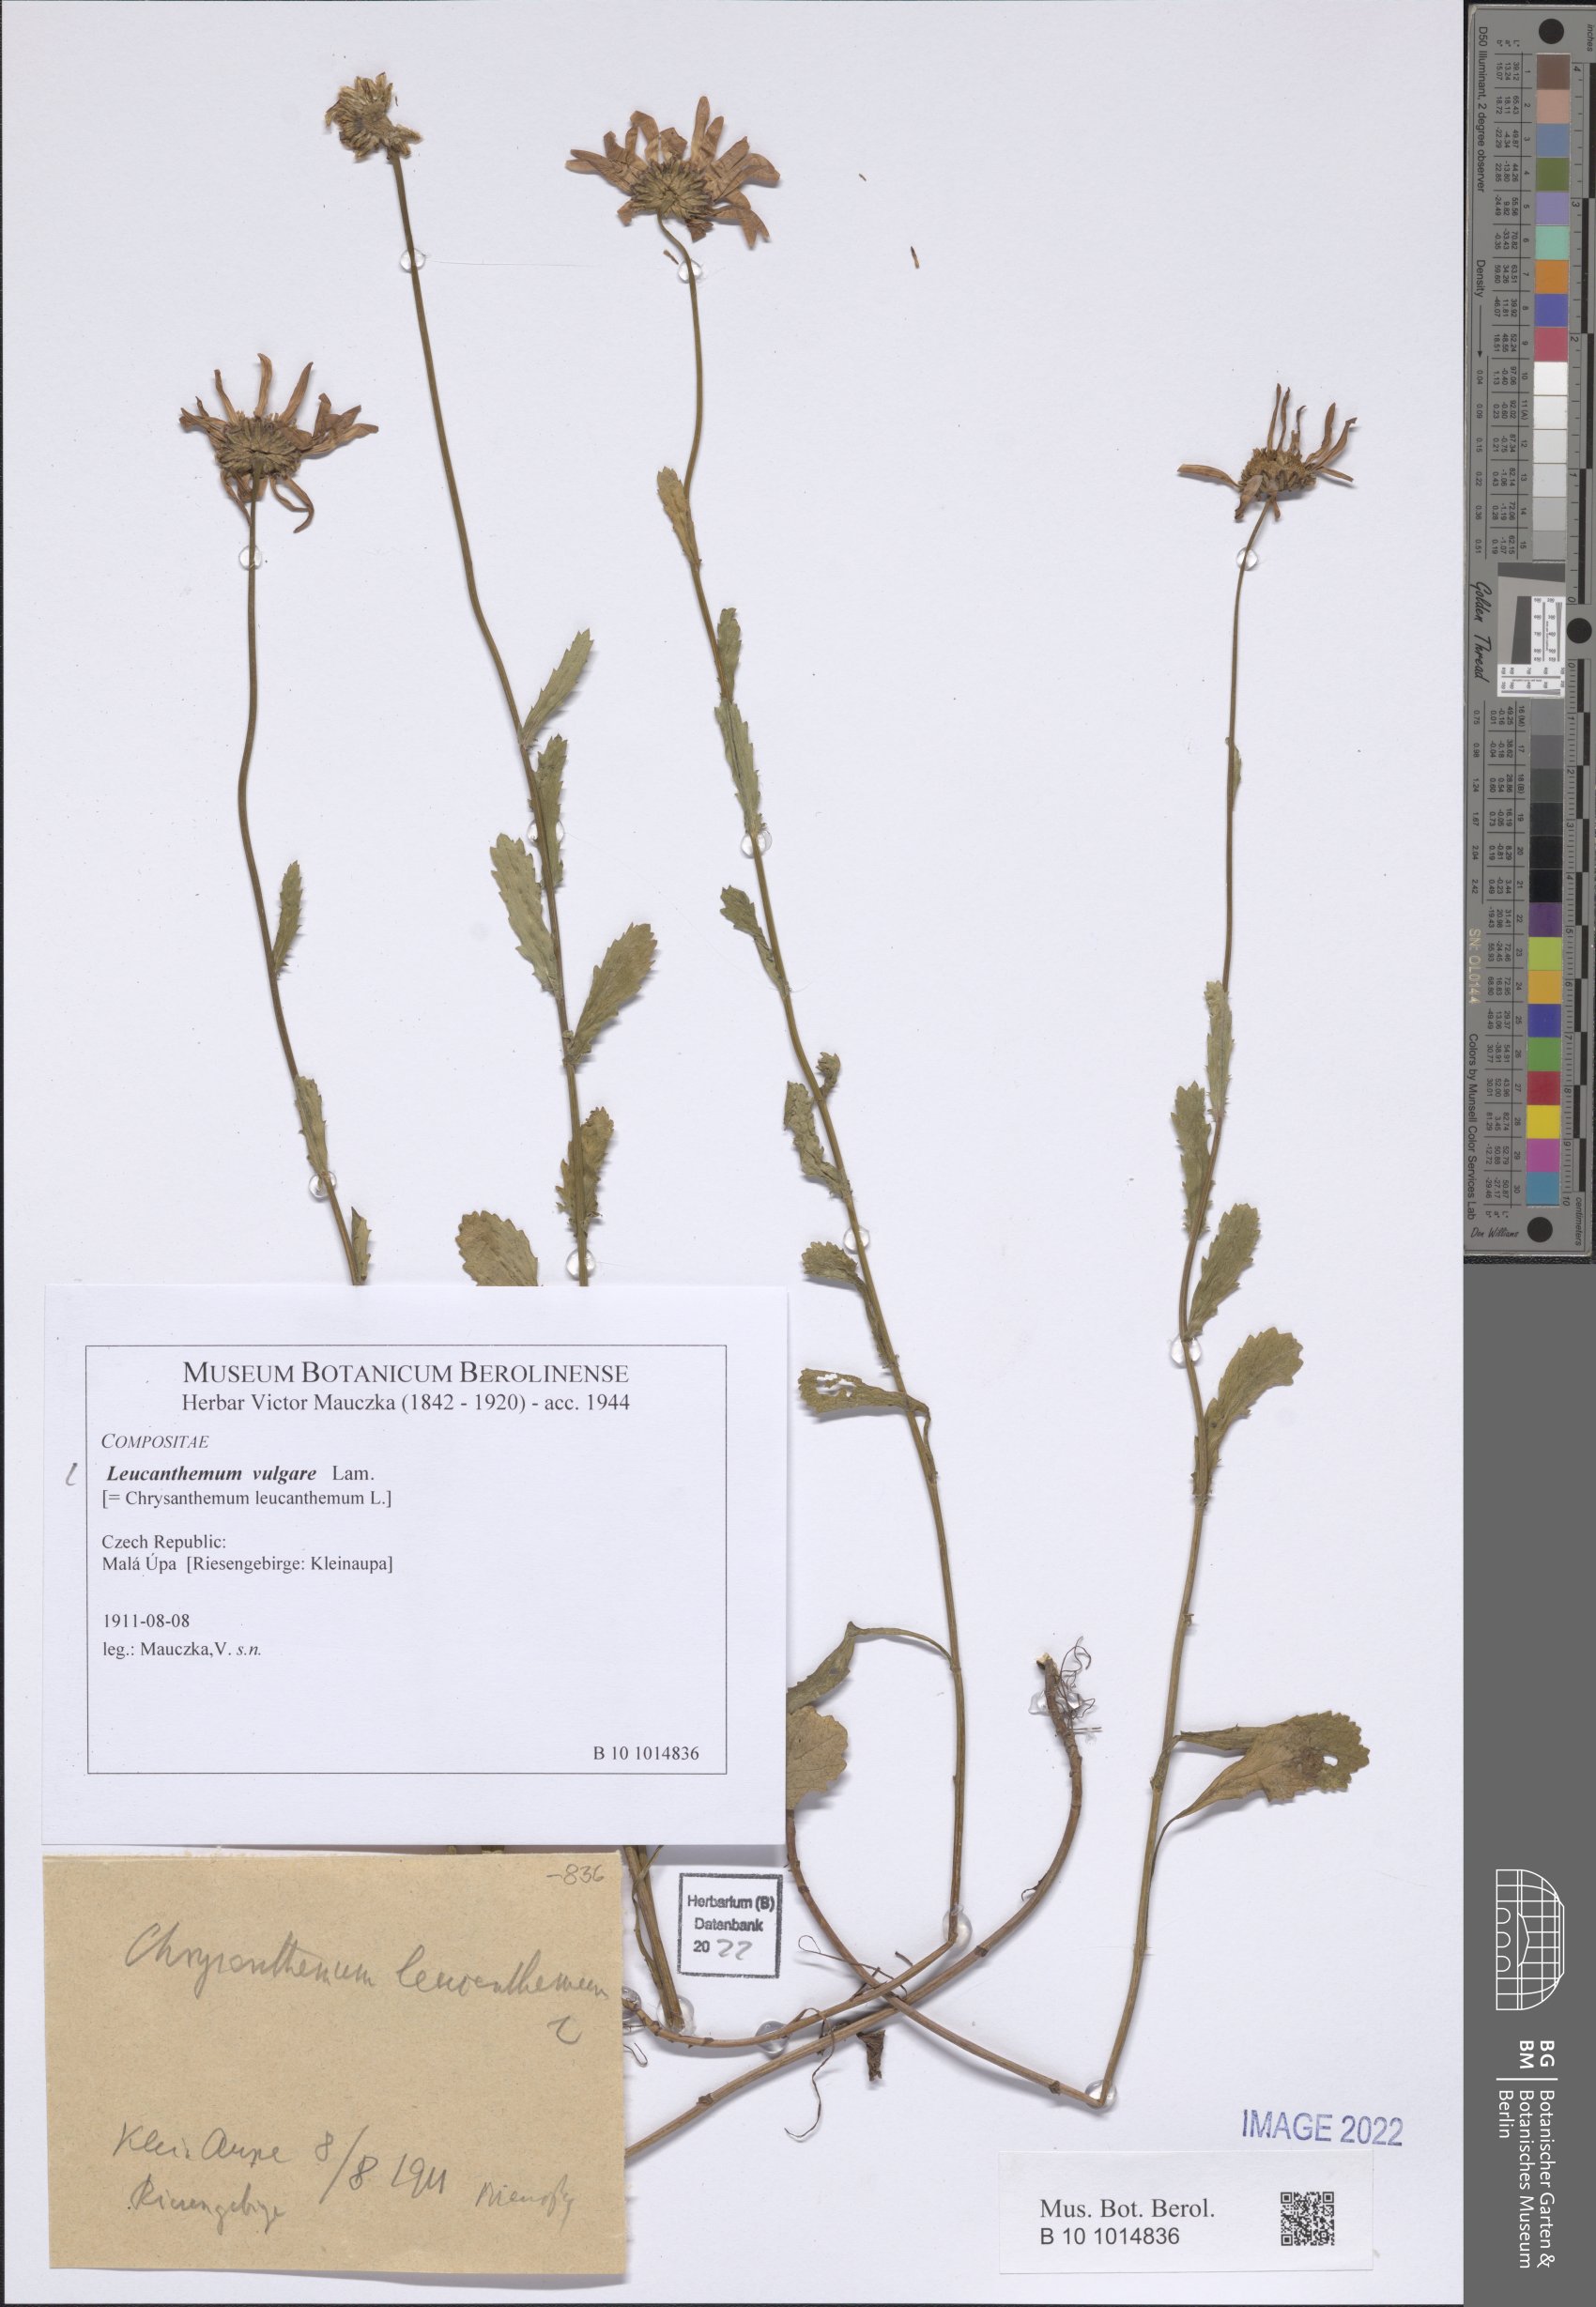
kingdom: Plantae
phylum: Tracheophyta
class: Magnoliopsida
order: Asterales
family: Asteraceae
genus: Leucanthemum
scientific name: Leucanthemum ircutianum
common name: Daisy
